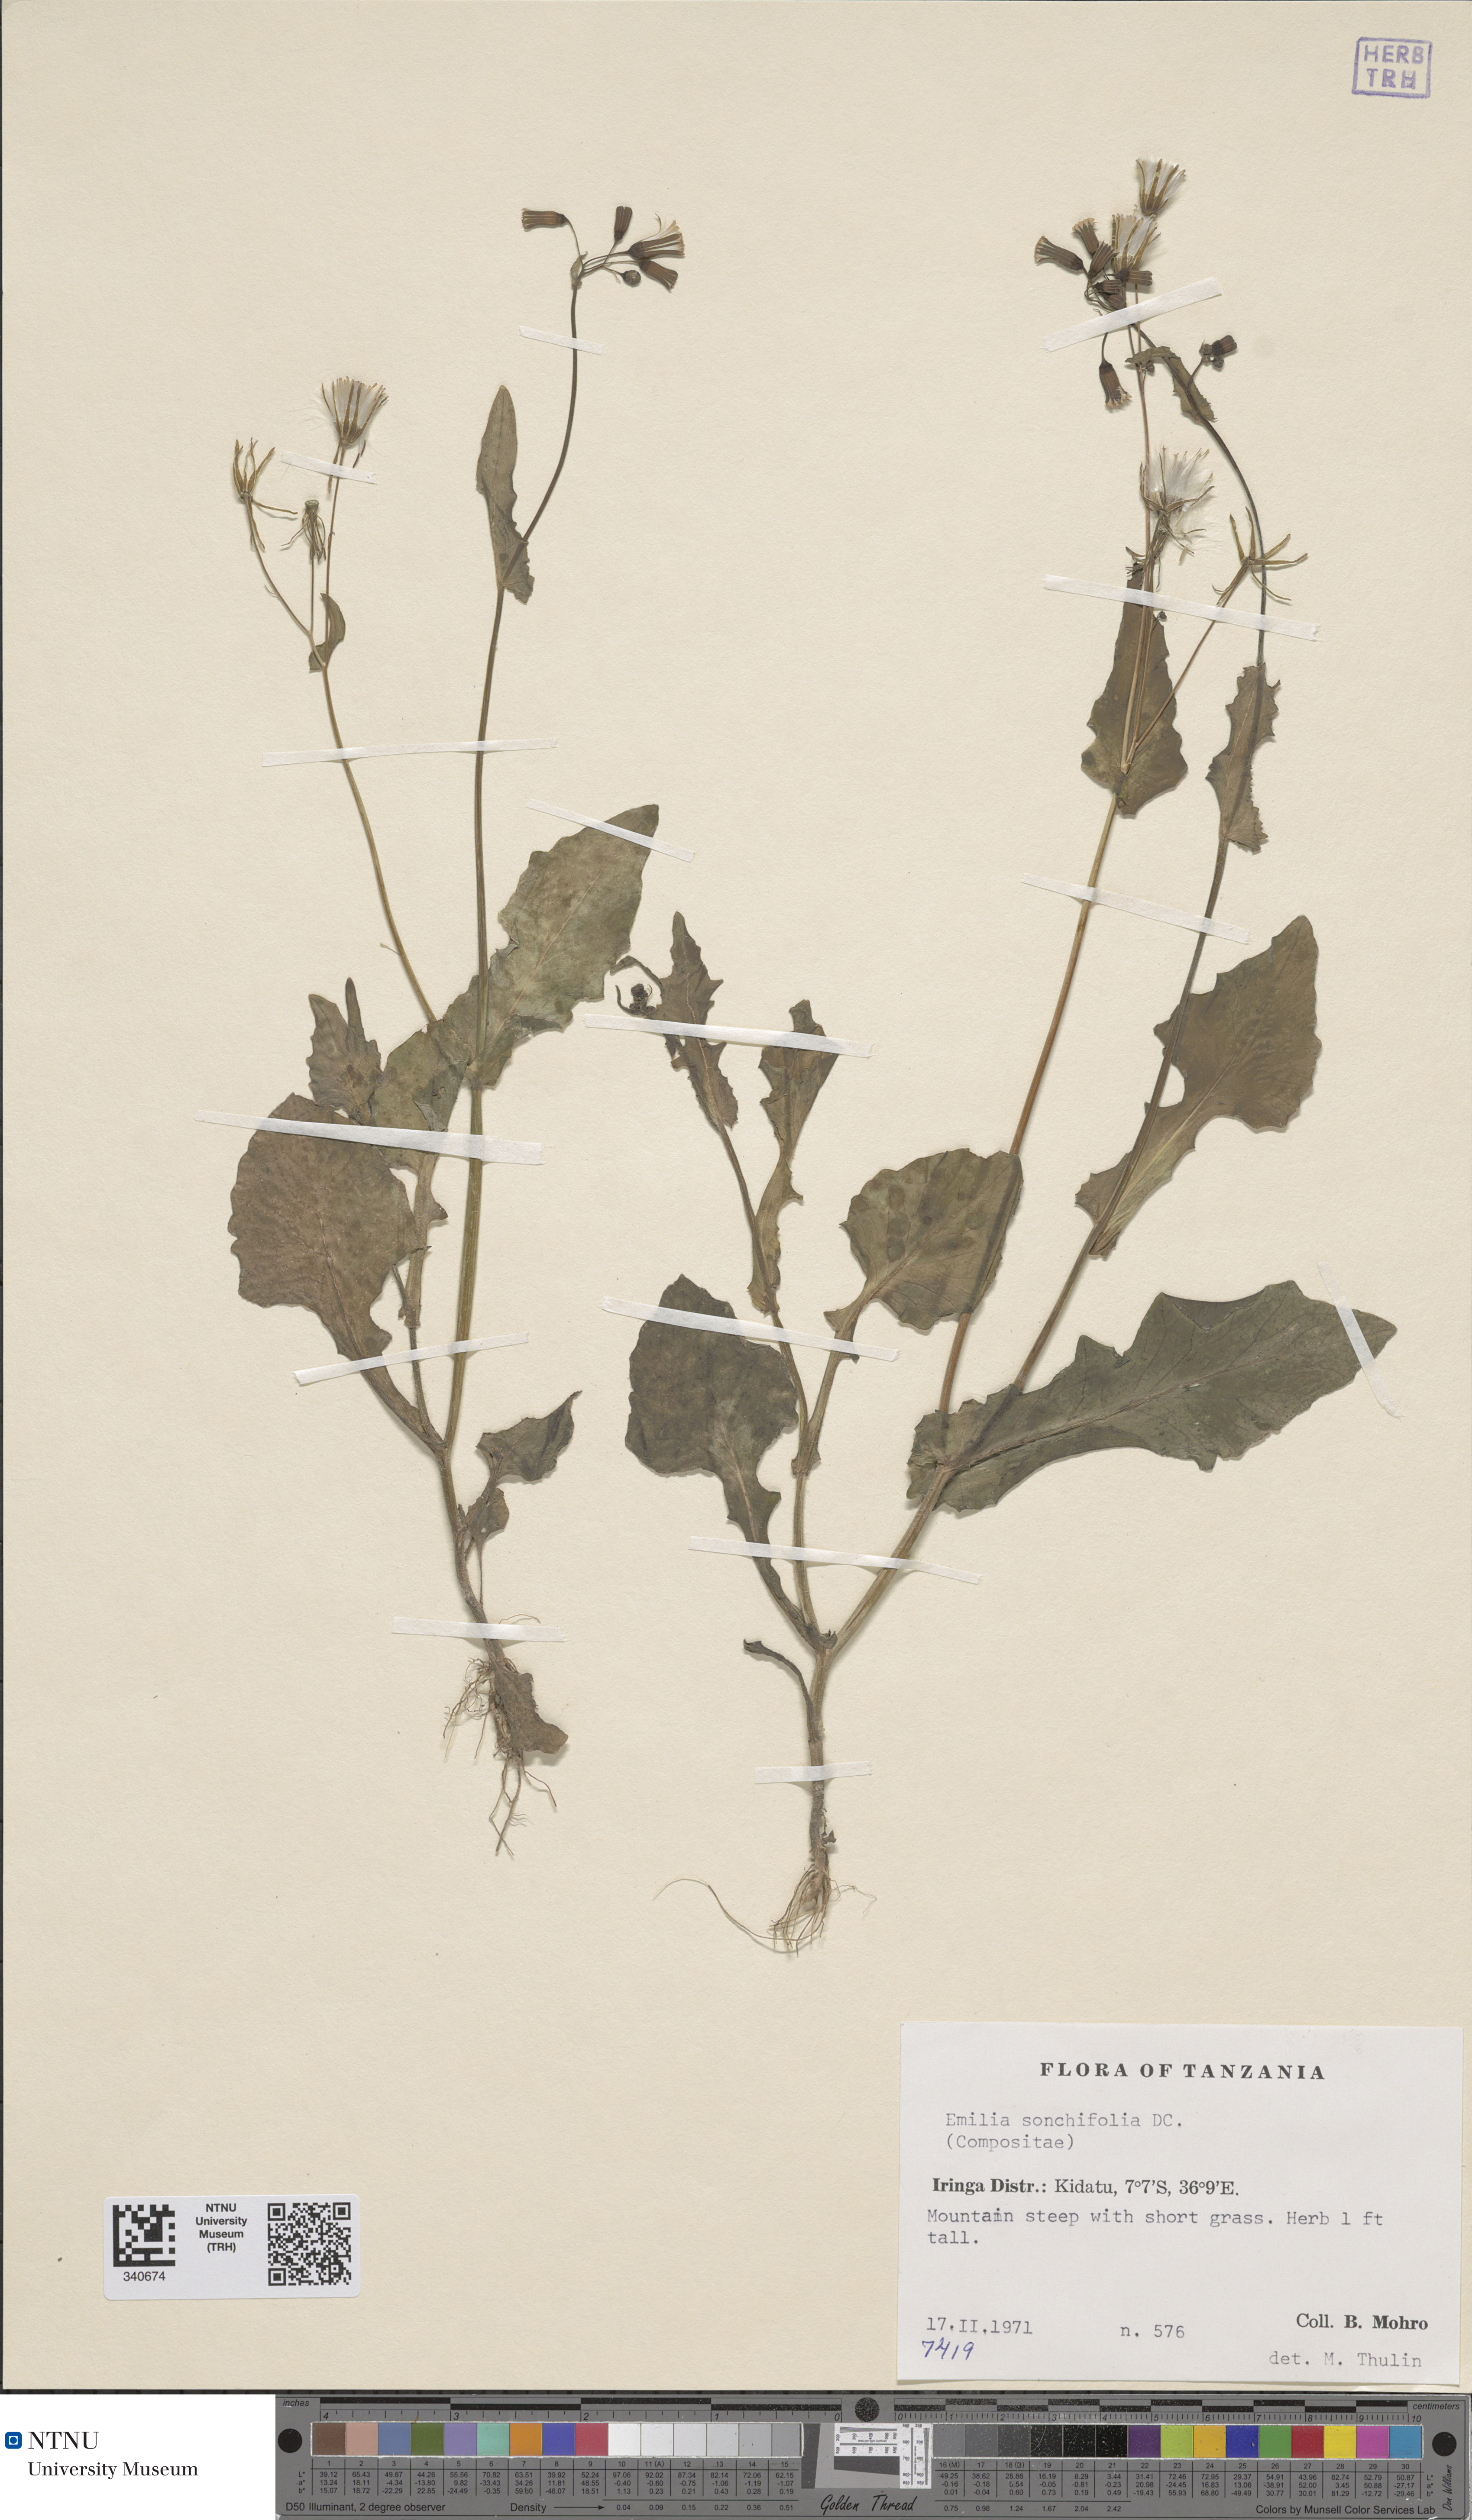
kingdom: Plantae
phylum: Tracheophyta
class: Magnoliopsida
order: Asterales
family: Asteraceae
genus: Emilia
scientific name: Emilia sonchifolia
